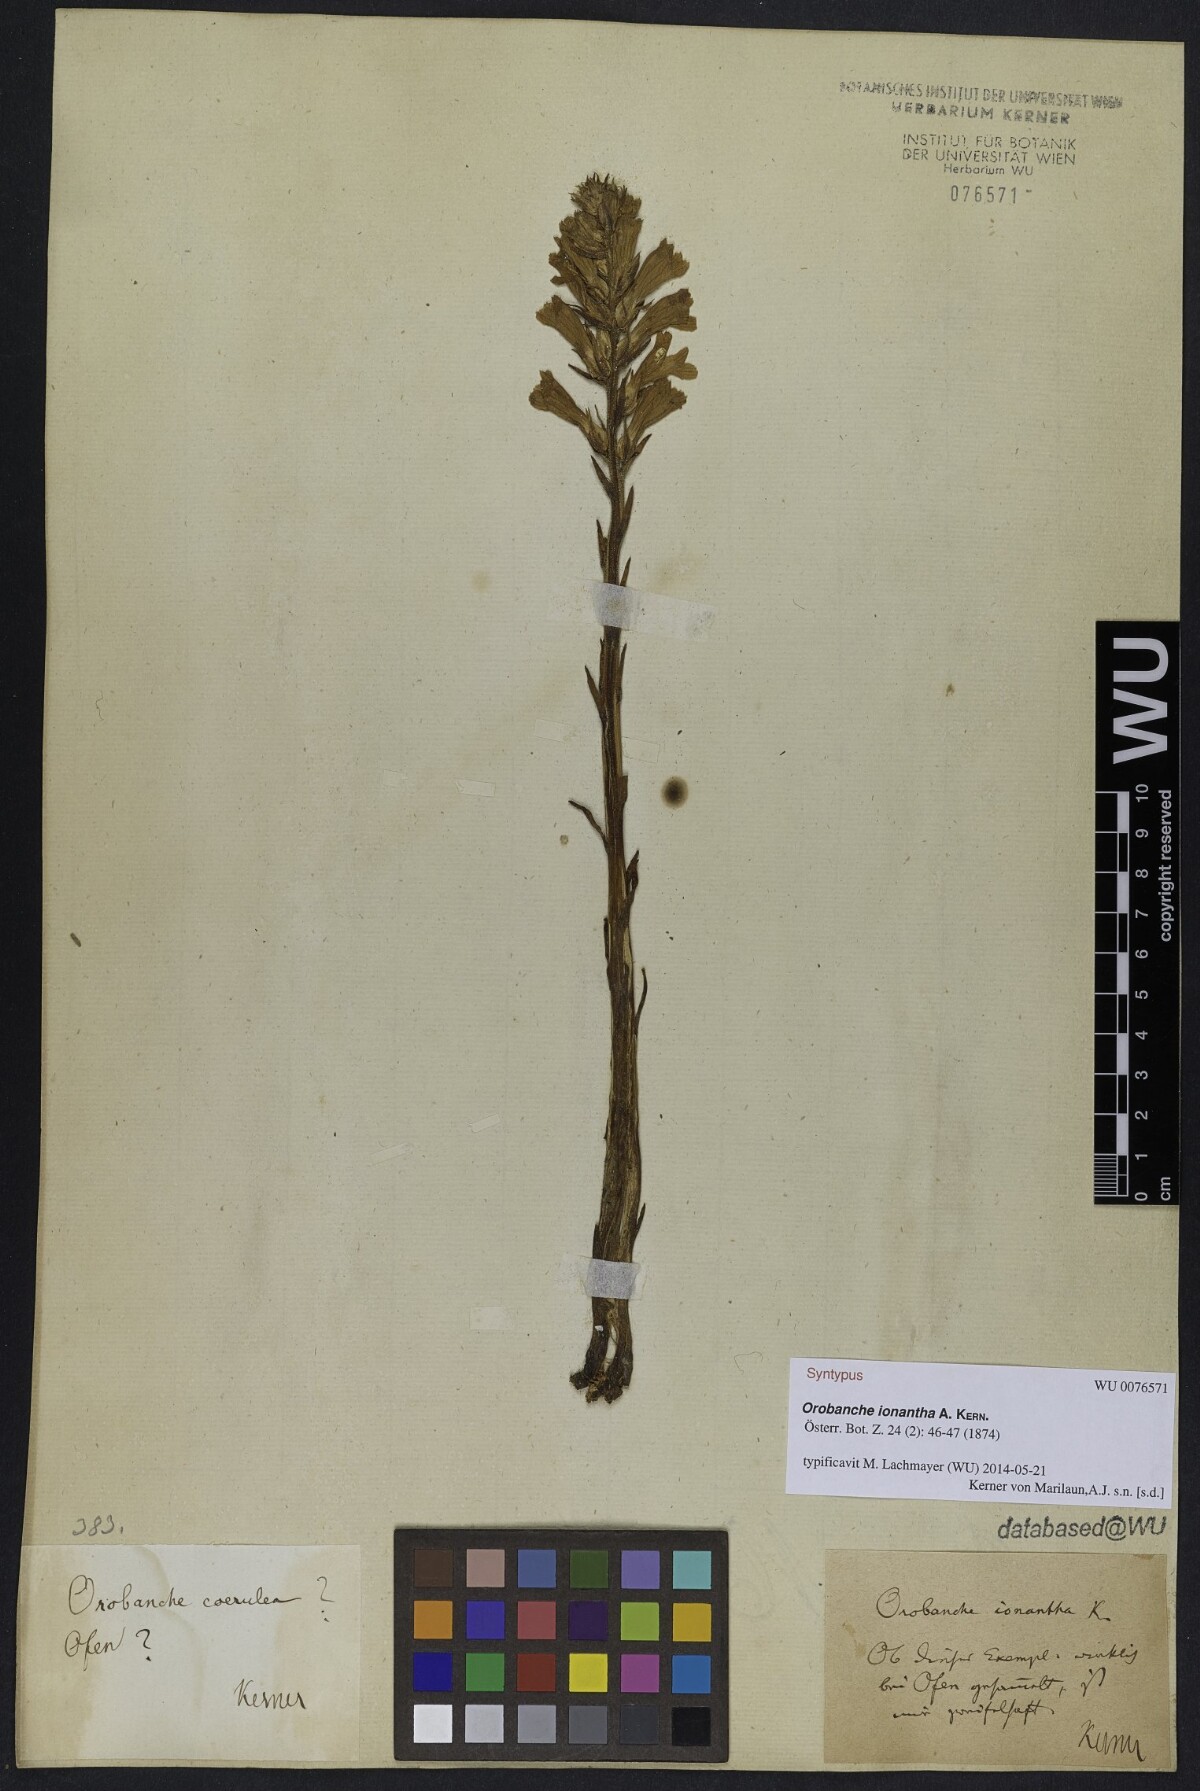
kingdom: Plantae
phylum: Tracheophyta
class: Magnoliopsida
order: Lamiales
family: Orobanchaceae
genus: Phelipanche
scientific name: Phelipanche arenaria
